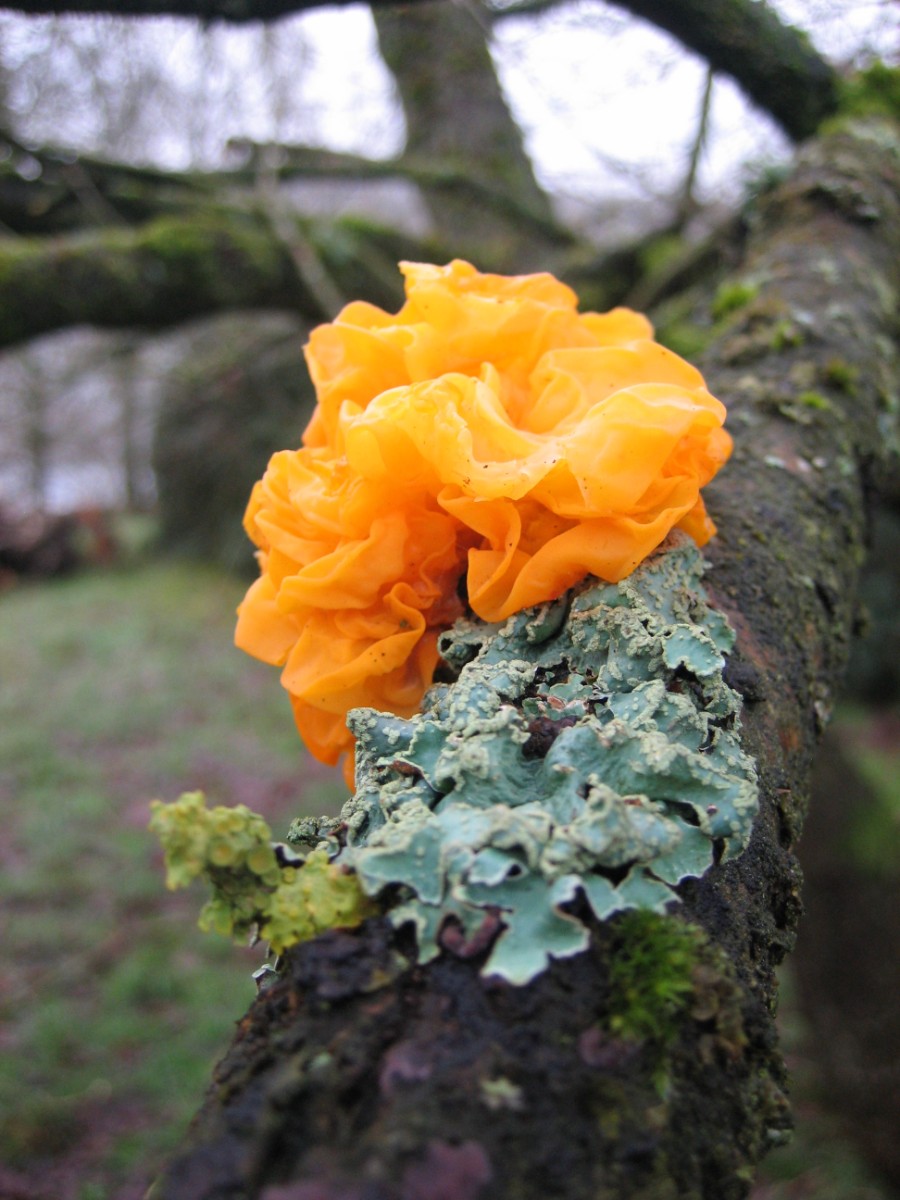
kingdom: Fungi
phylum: Basidiomycota
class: Tremellomycetes
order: Tremellales
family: Tremellaceae
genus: Tremella
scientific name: Tremella mesenterica
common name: gul bævresvamp
